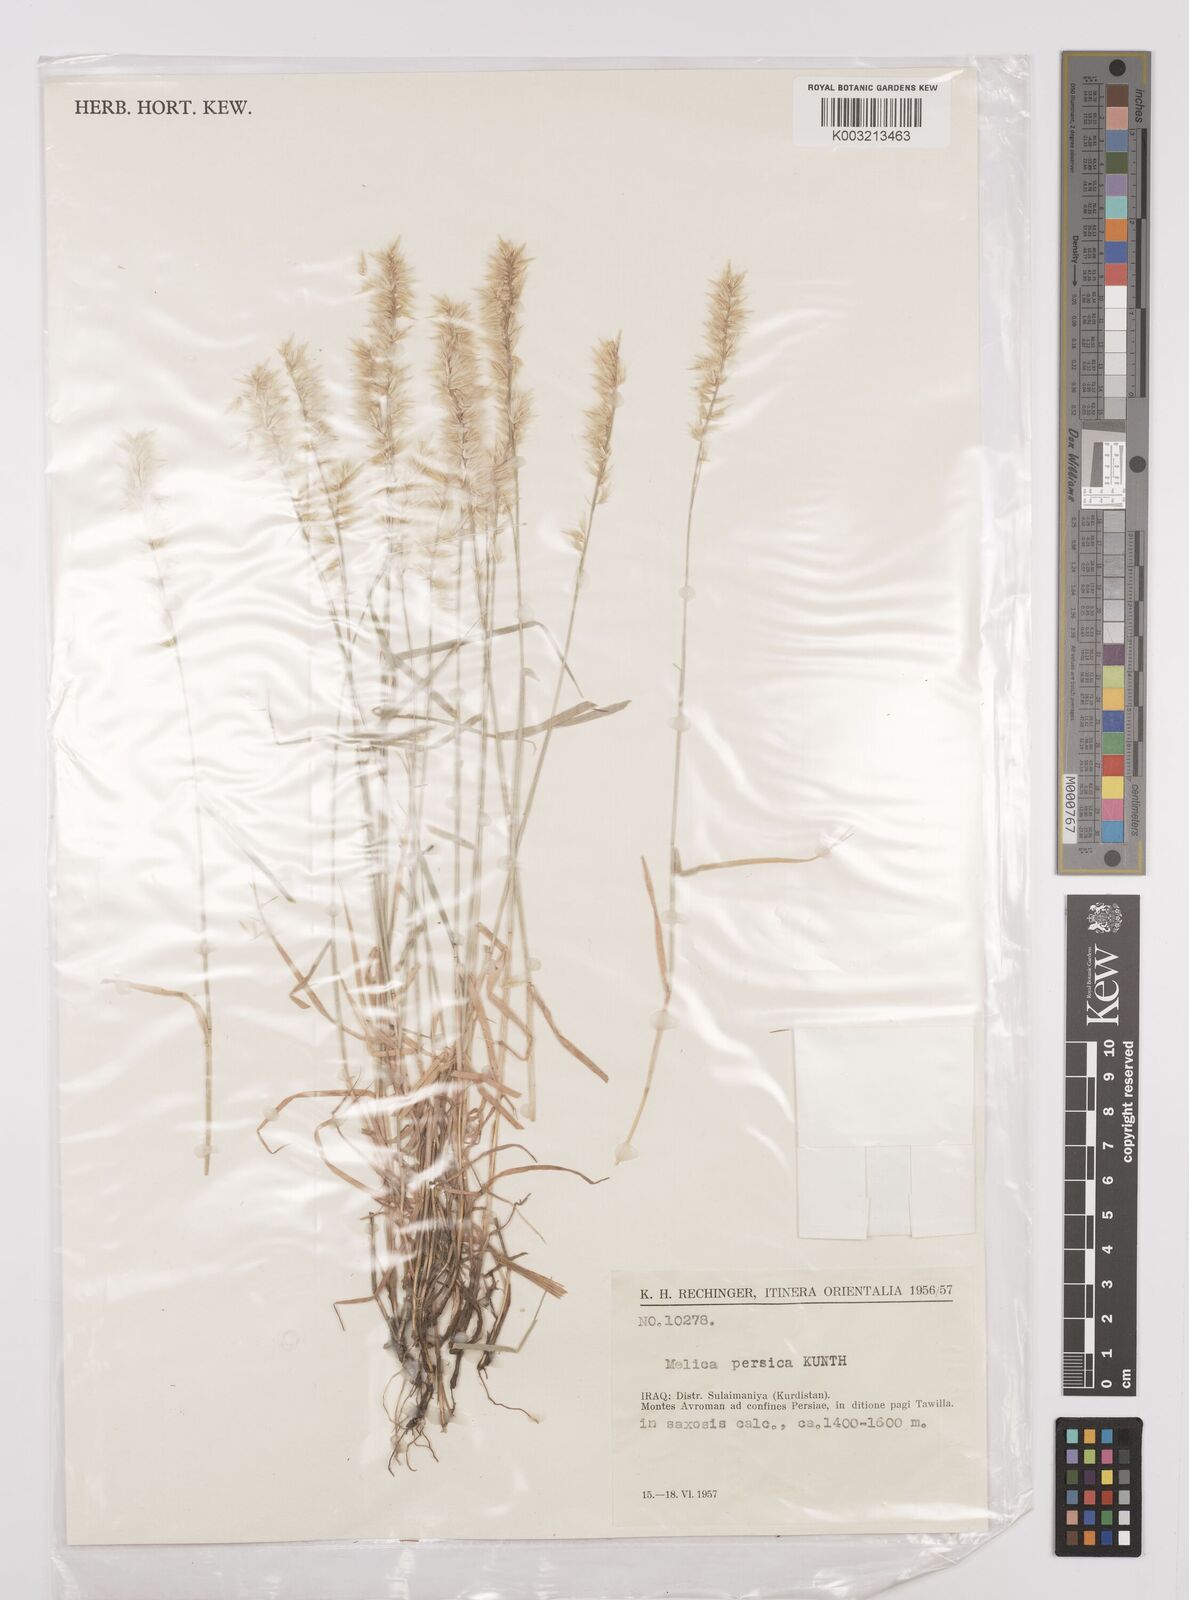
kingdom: Plantae
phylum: Tracheophyta
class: Liliopsida
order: Poales
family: Poaceae
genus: Melica
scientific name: Melica persica
